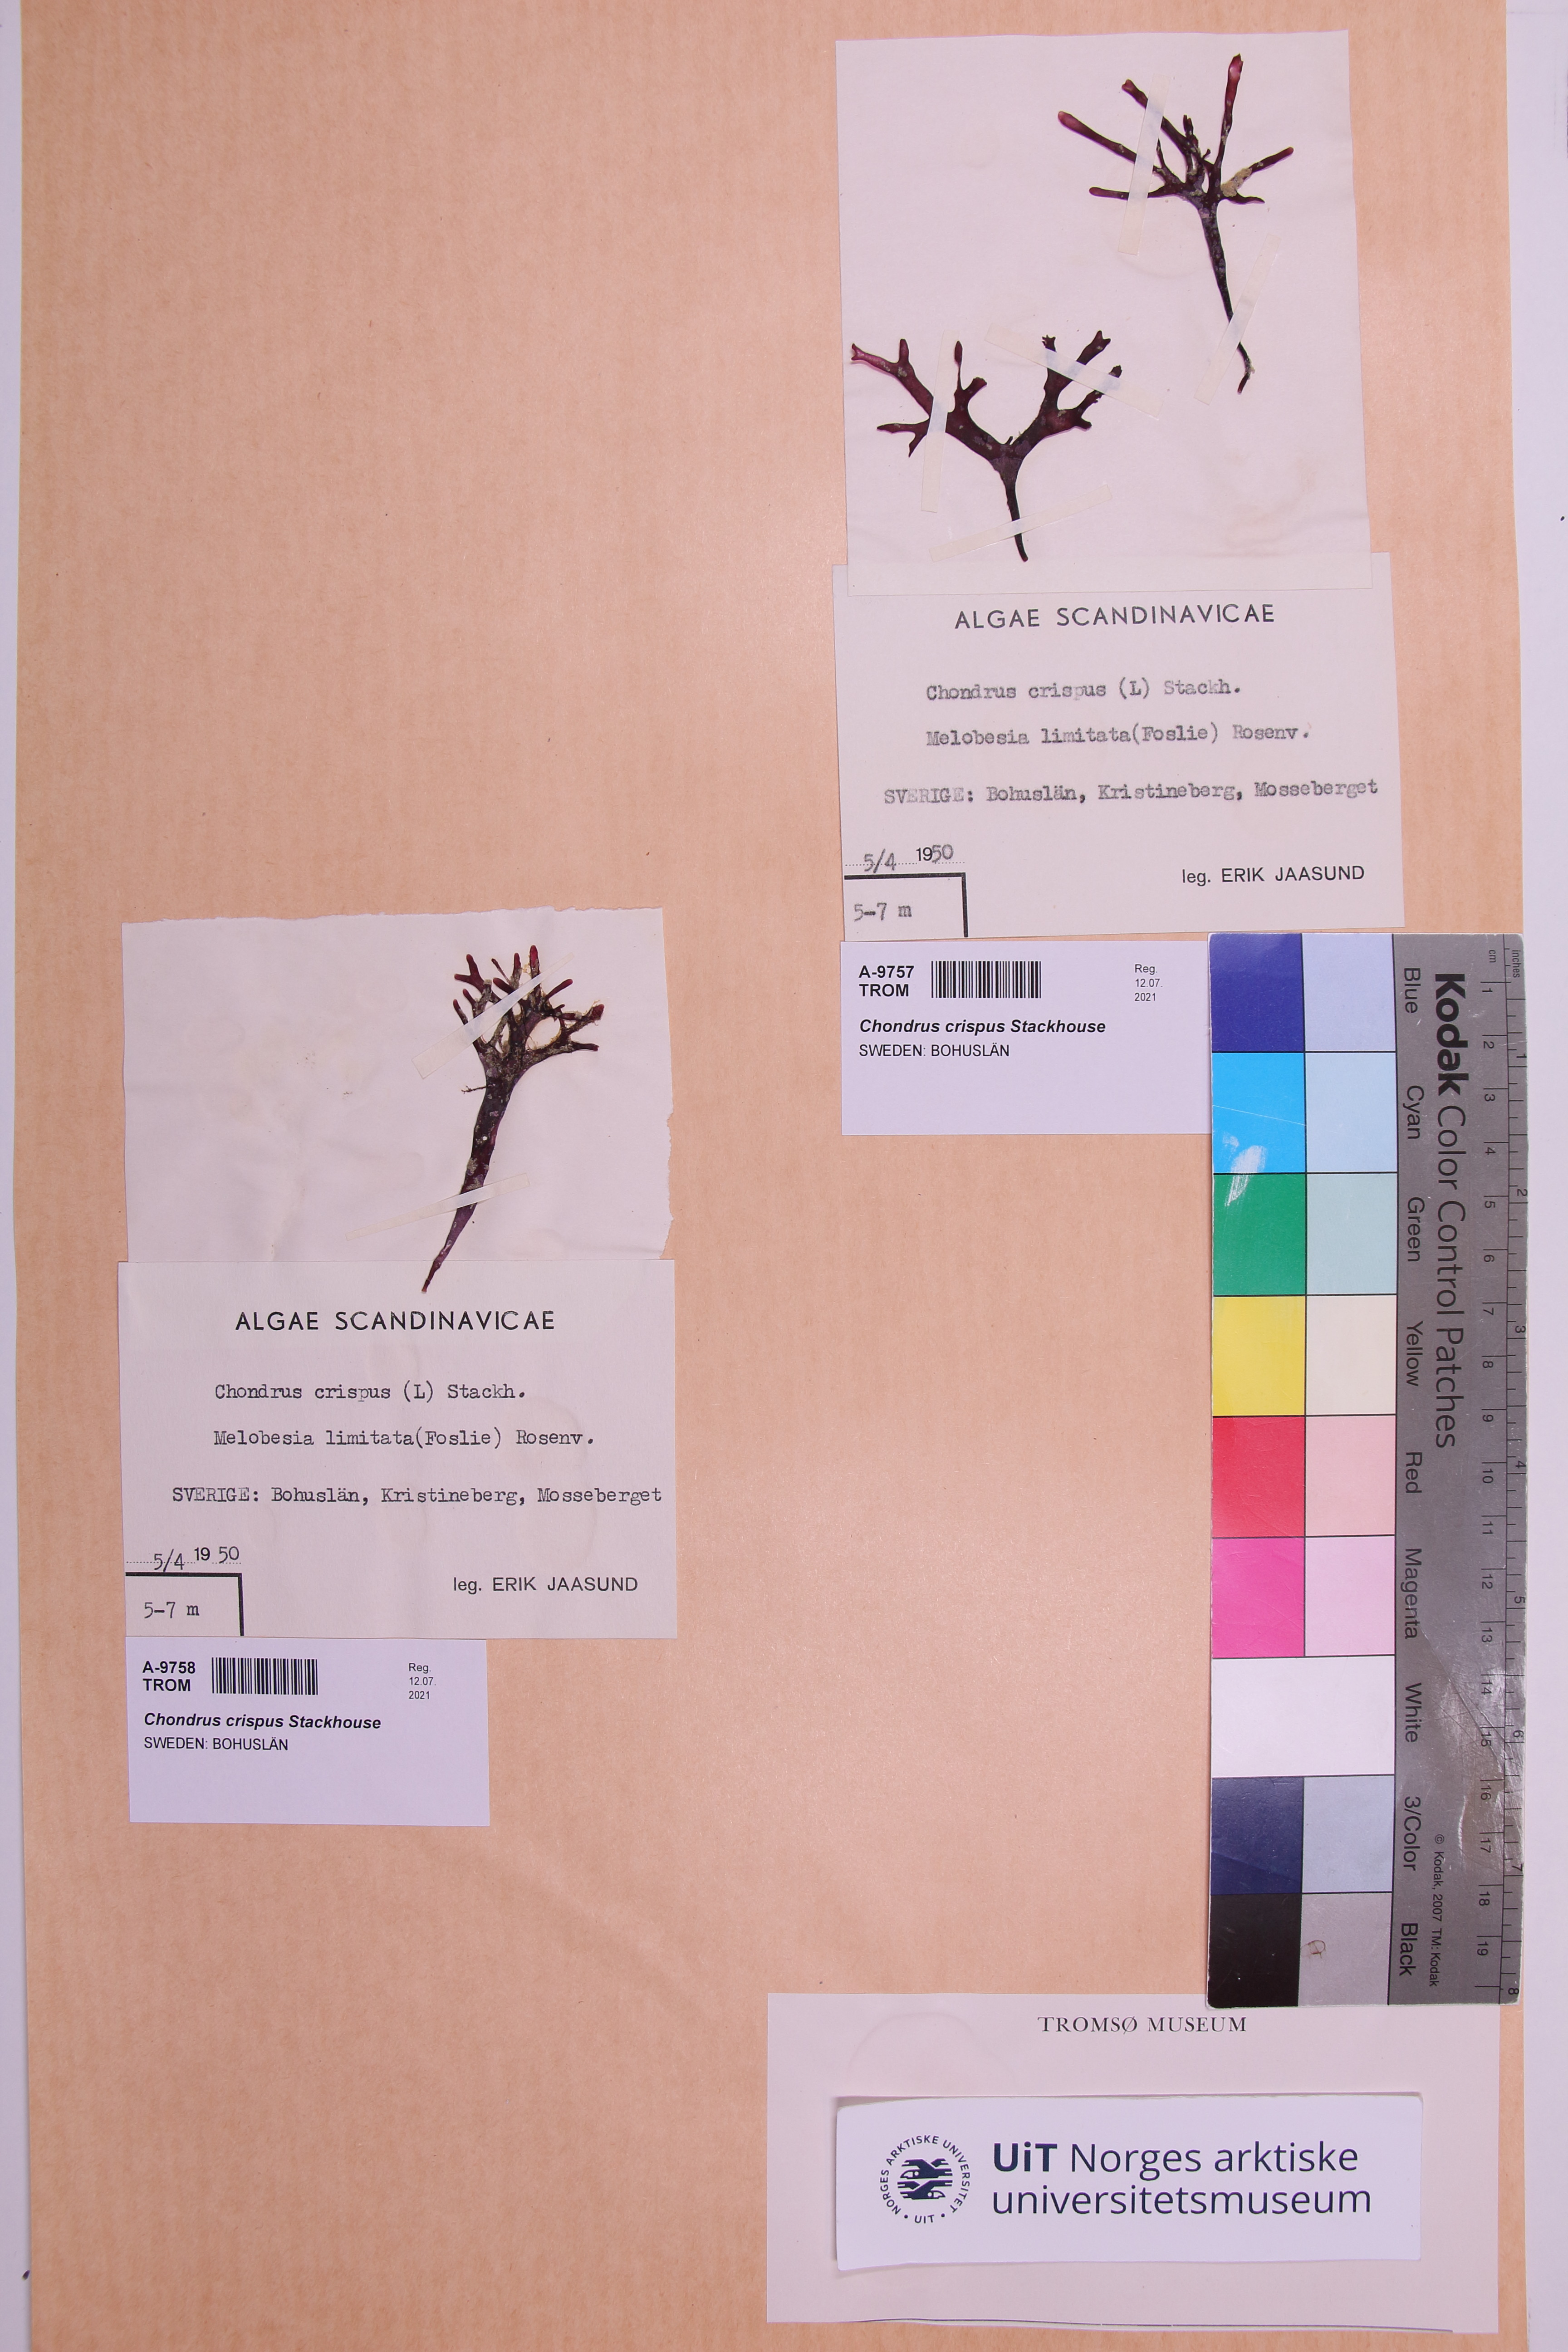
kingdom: Plantae
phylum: Rhodophyta
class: Florideophyceae
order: Gigartinales
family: Gigartinaceae
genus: Chondrus
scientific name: Chondrus crispus
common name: Carrageen
